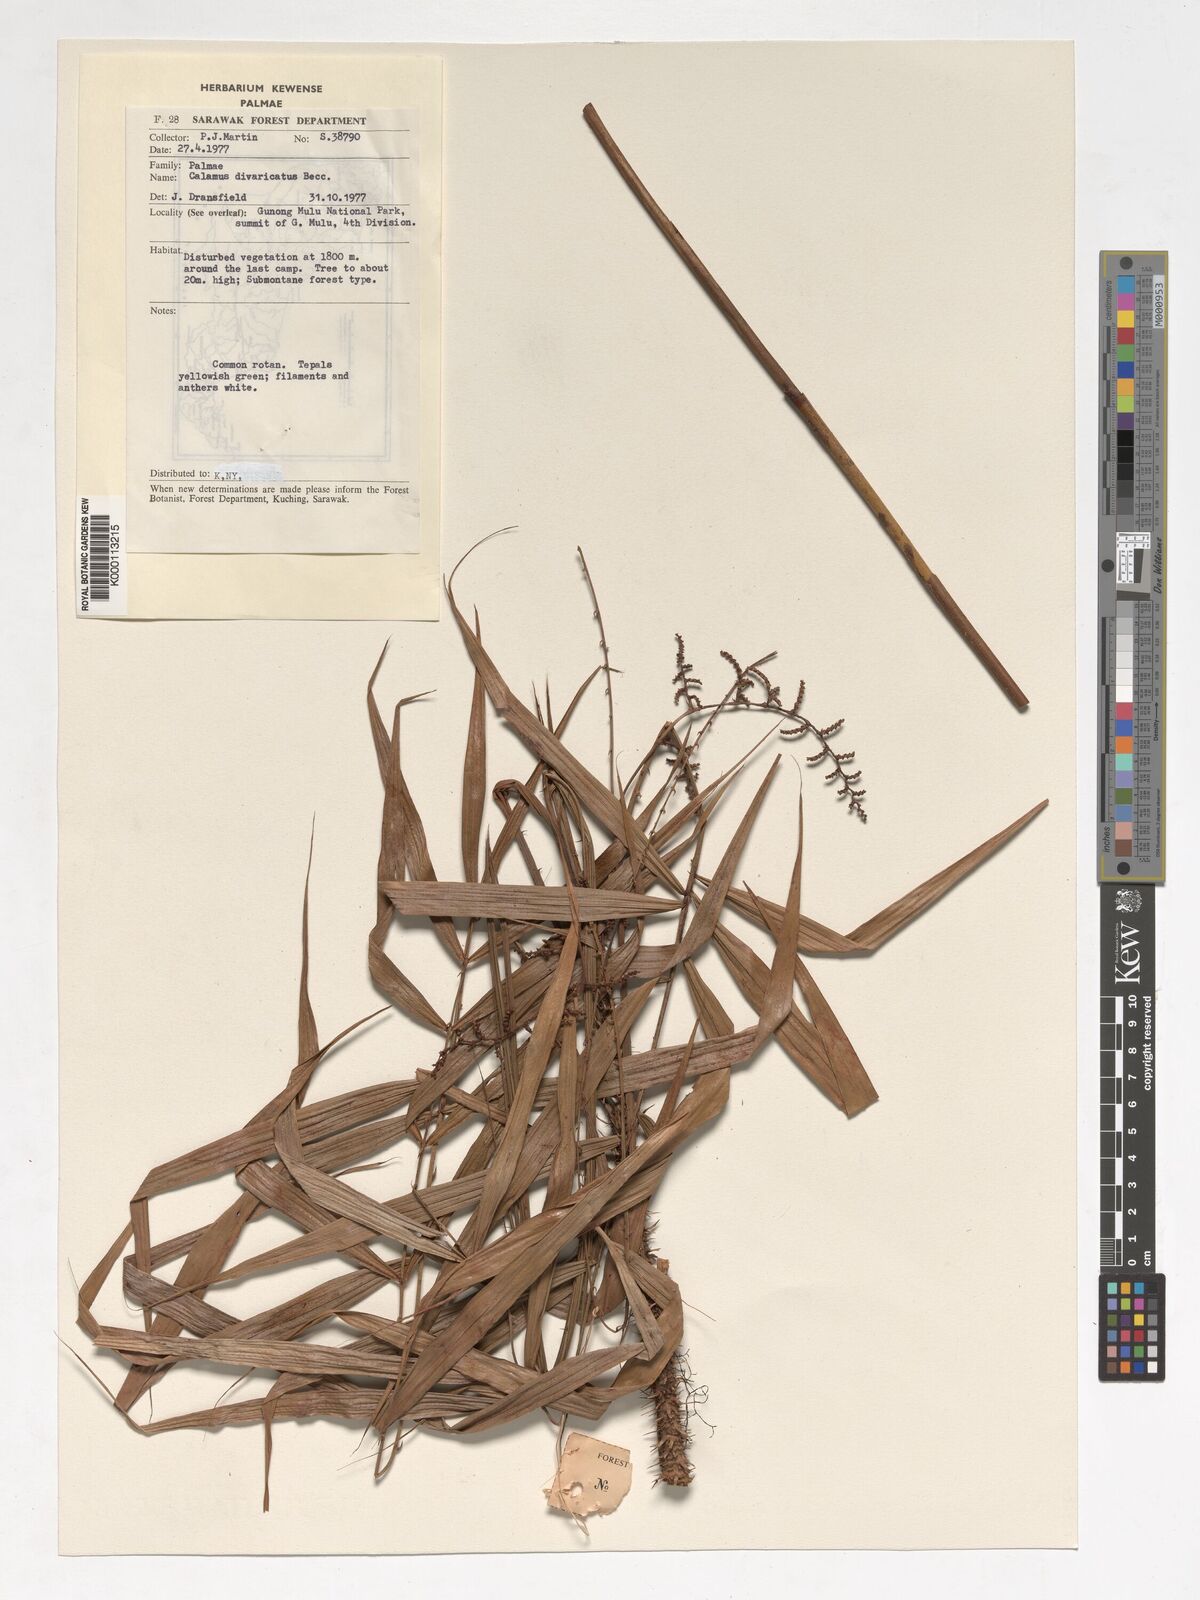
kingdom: Plantae
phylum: Tracheophyta
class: Liliopsida
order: Arecales
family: Arecaceae
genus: Calamus
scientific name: Calamus divaricatus
